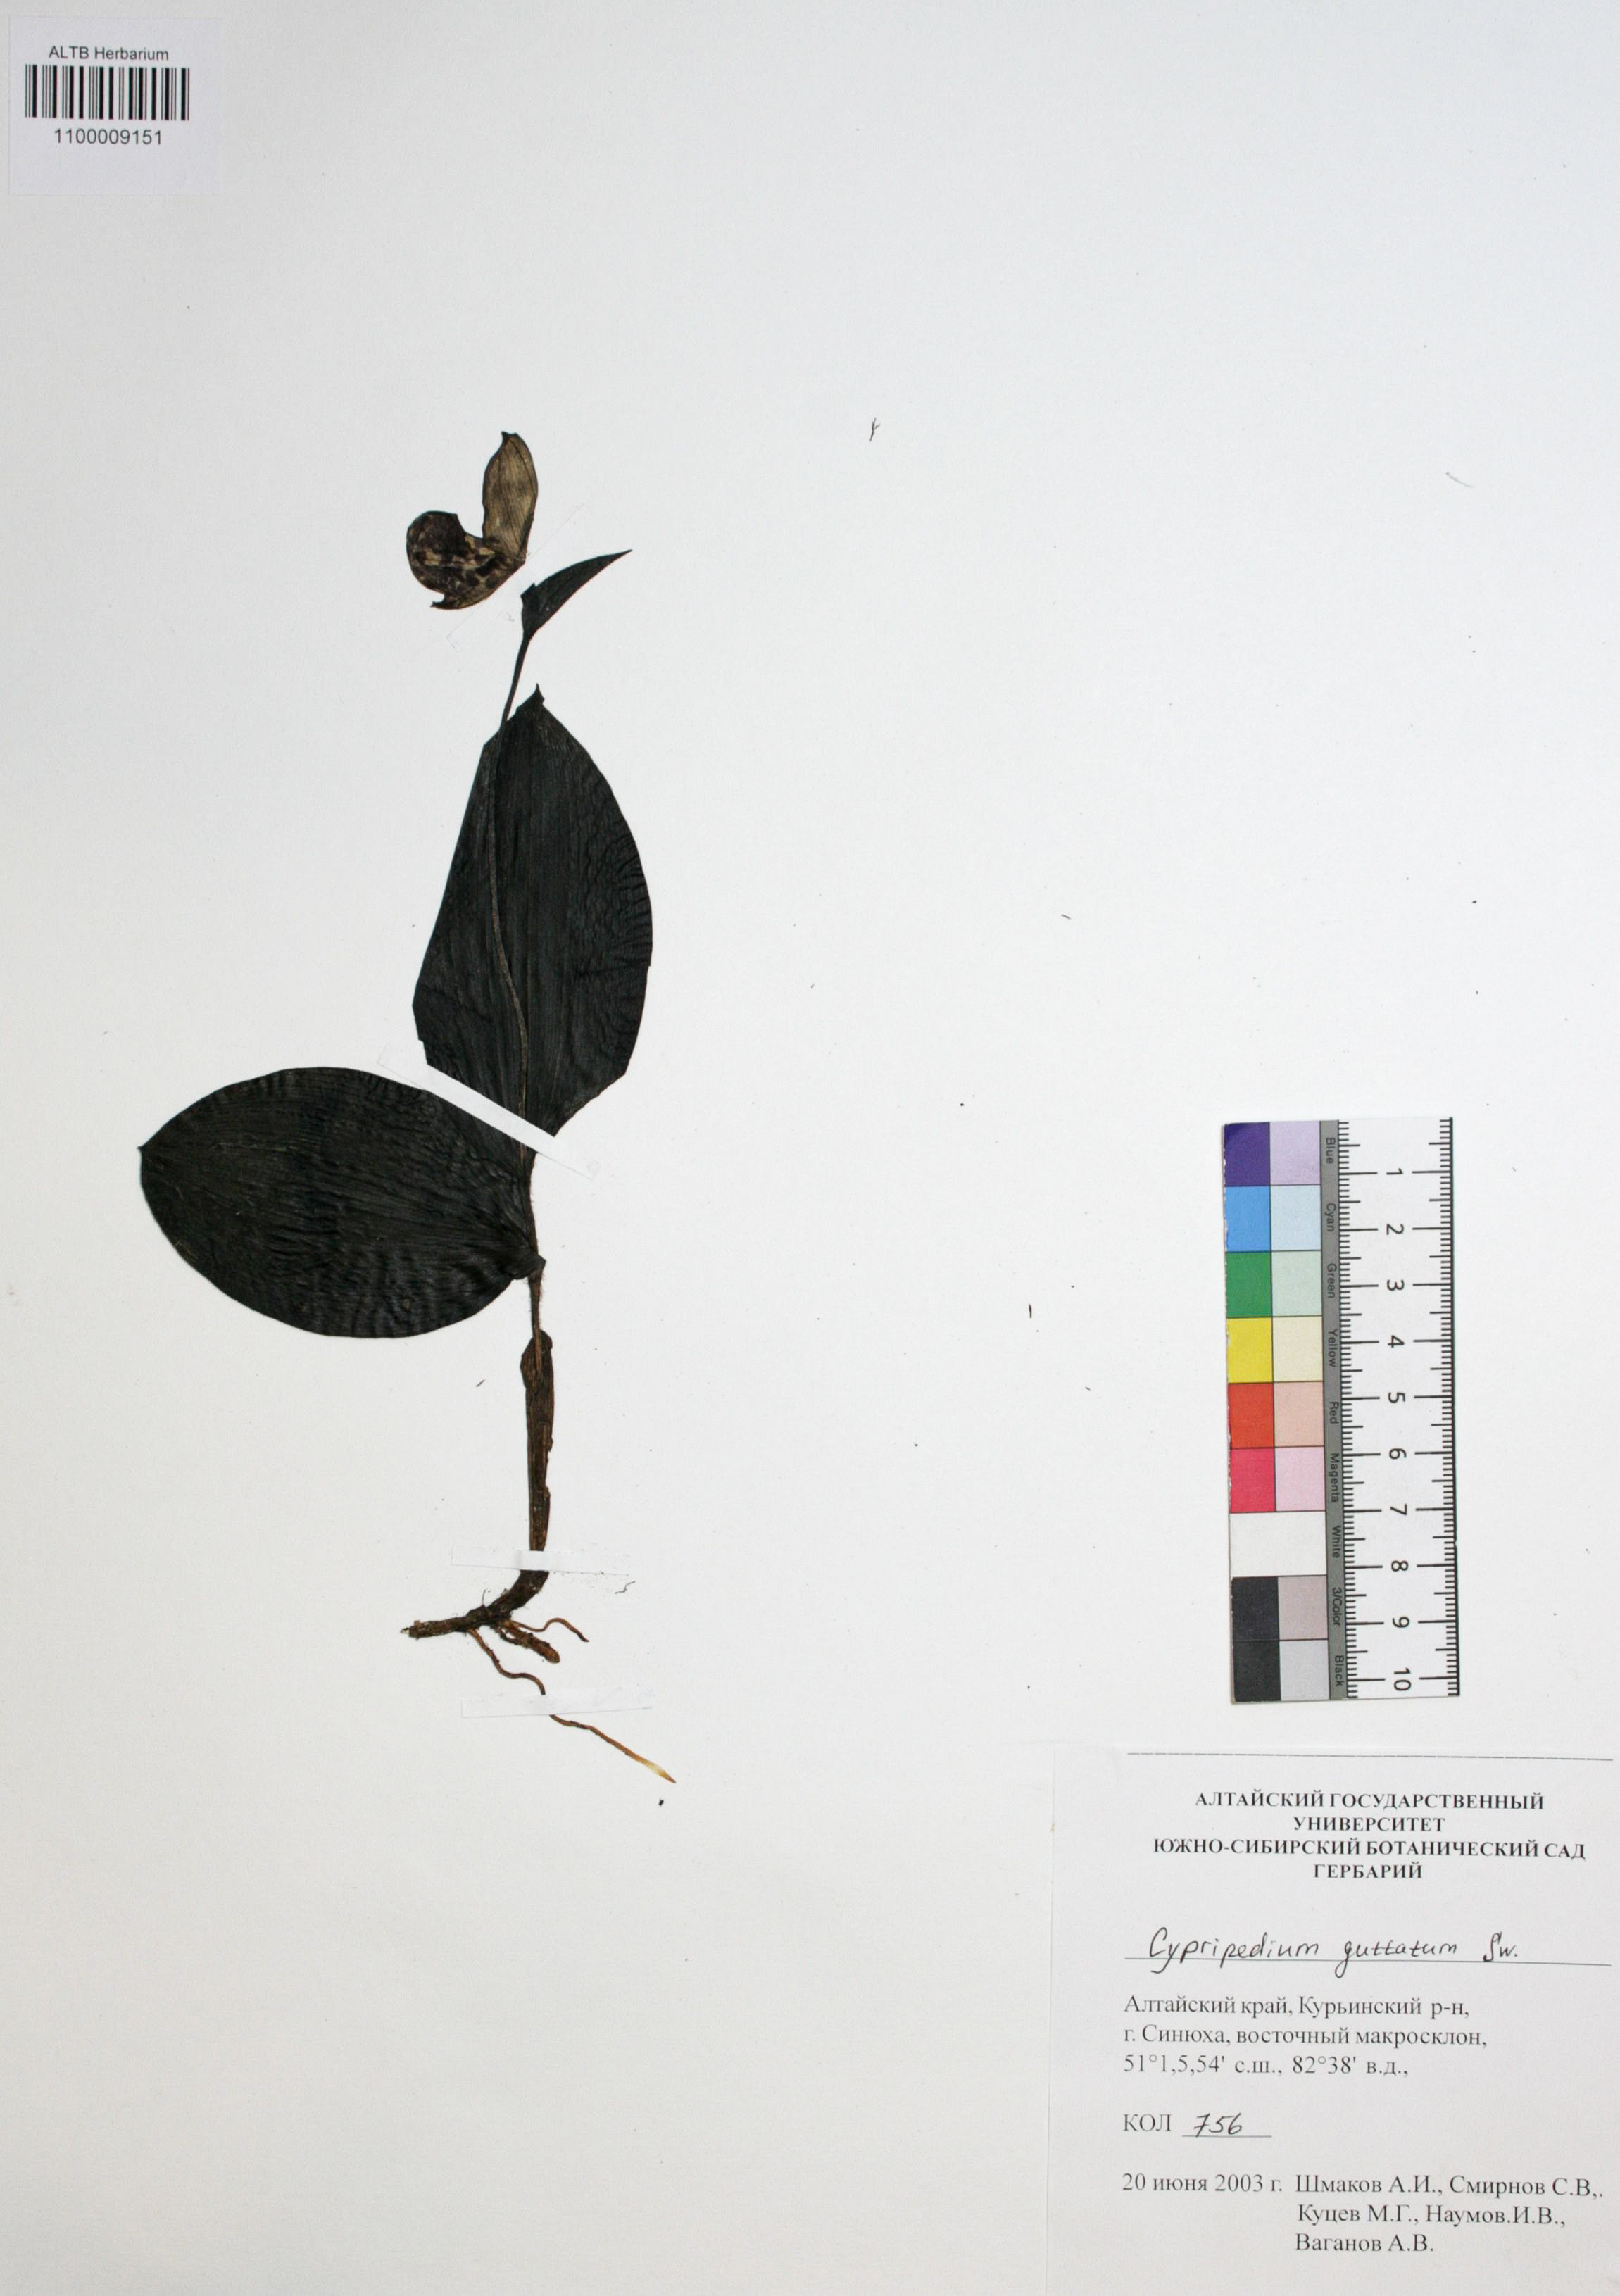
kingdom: Plantae
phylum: Tracheophyta
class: Liliopsida
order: Asparagales
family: Orchidaceae
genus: Cypripedium
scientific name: Cypripedium guttatum
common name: Pink lady slipper
